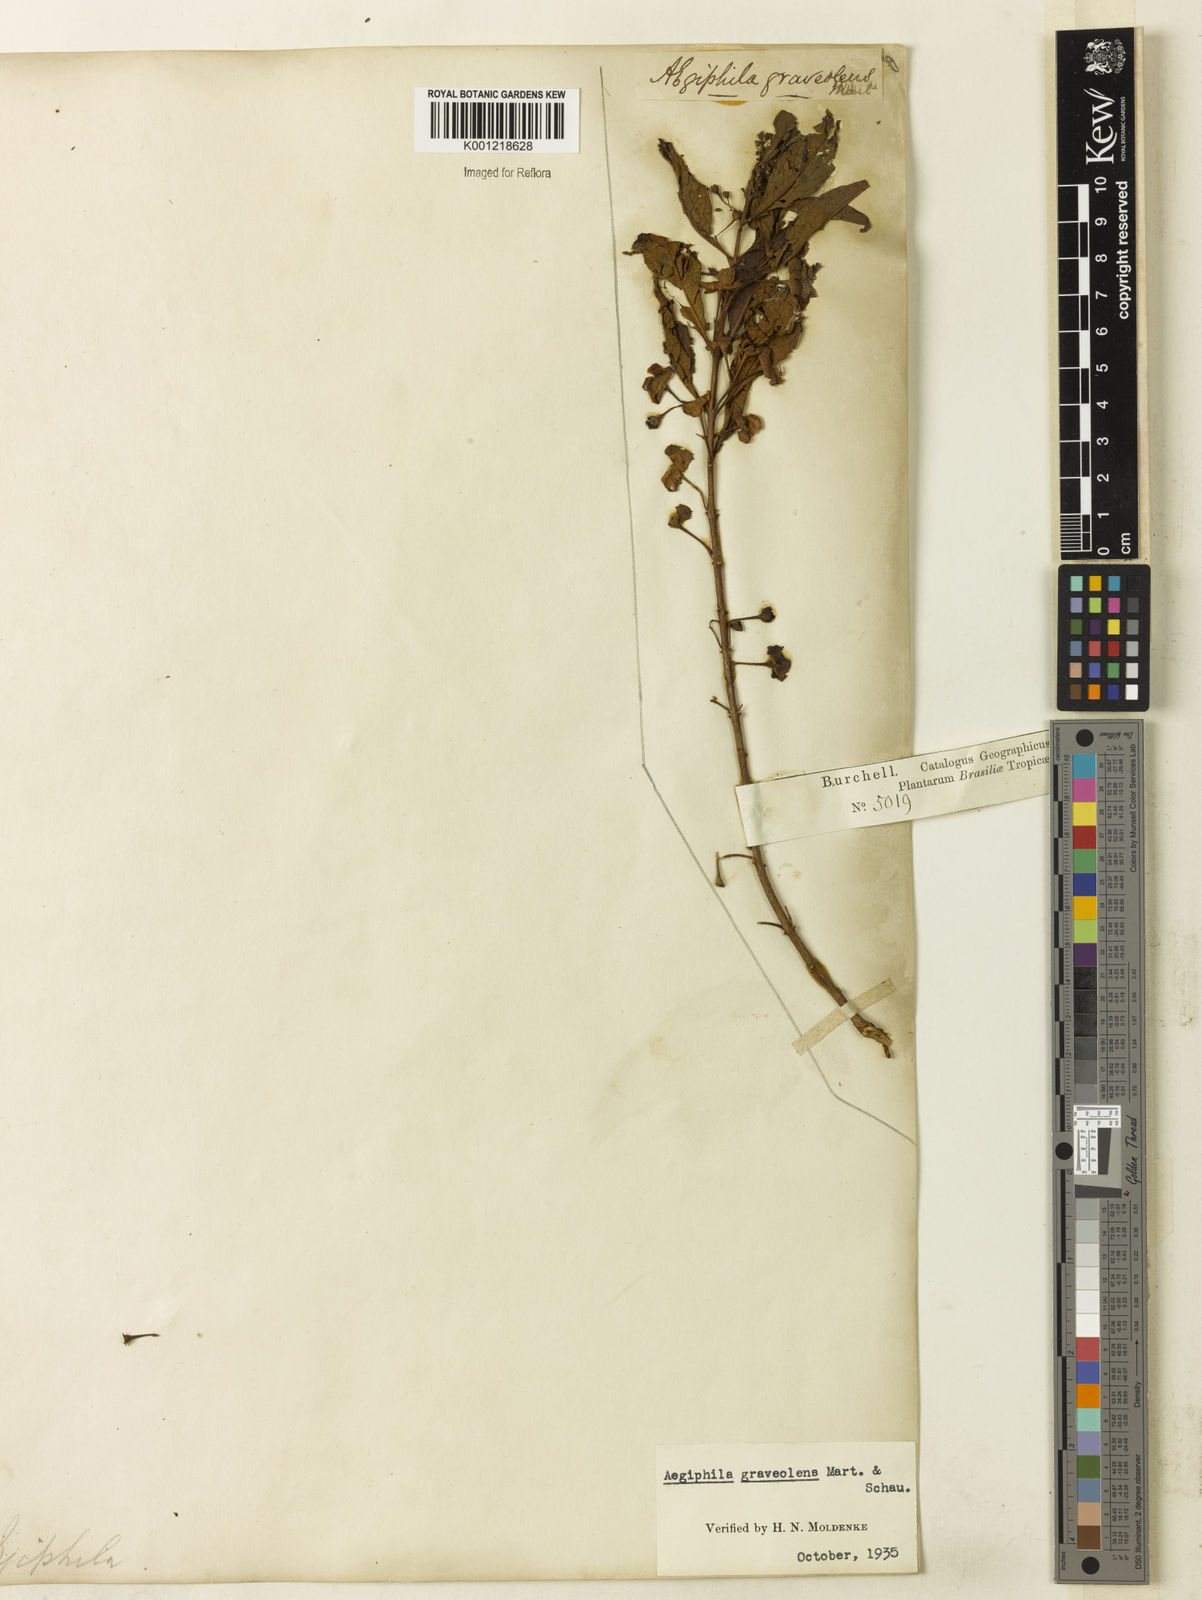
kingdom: Plantae
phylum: Tracheophyta
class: Magnoliopsida
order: Lamiales
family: Lamiaceae
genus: Aegiphila
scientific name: Aegiphila graveolens
